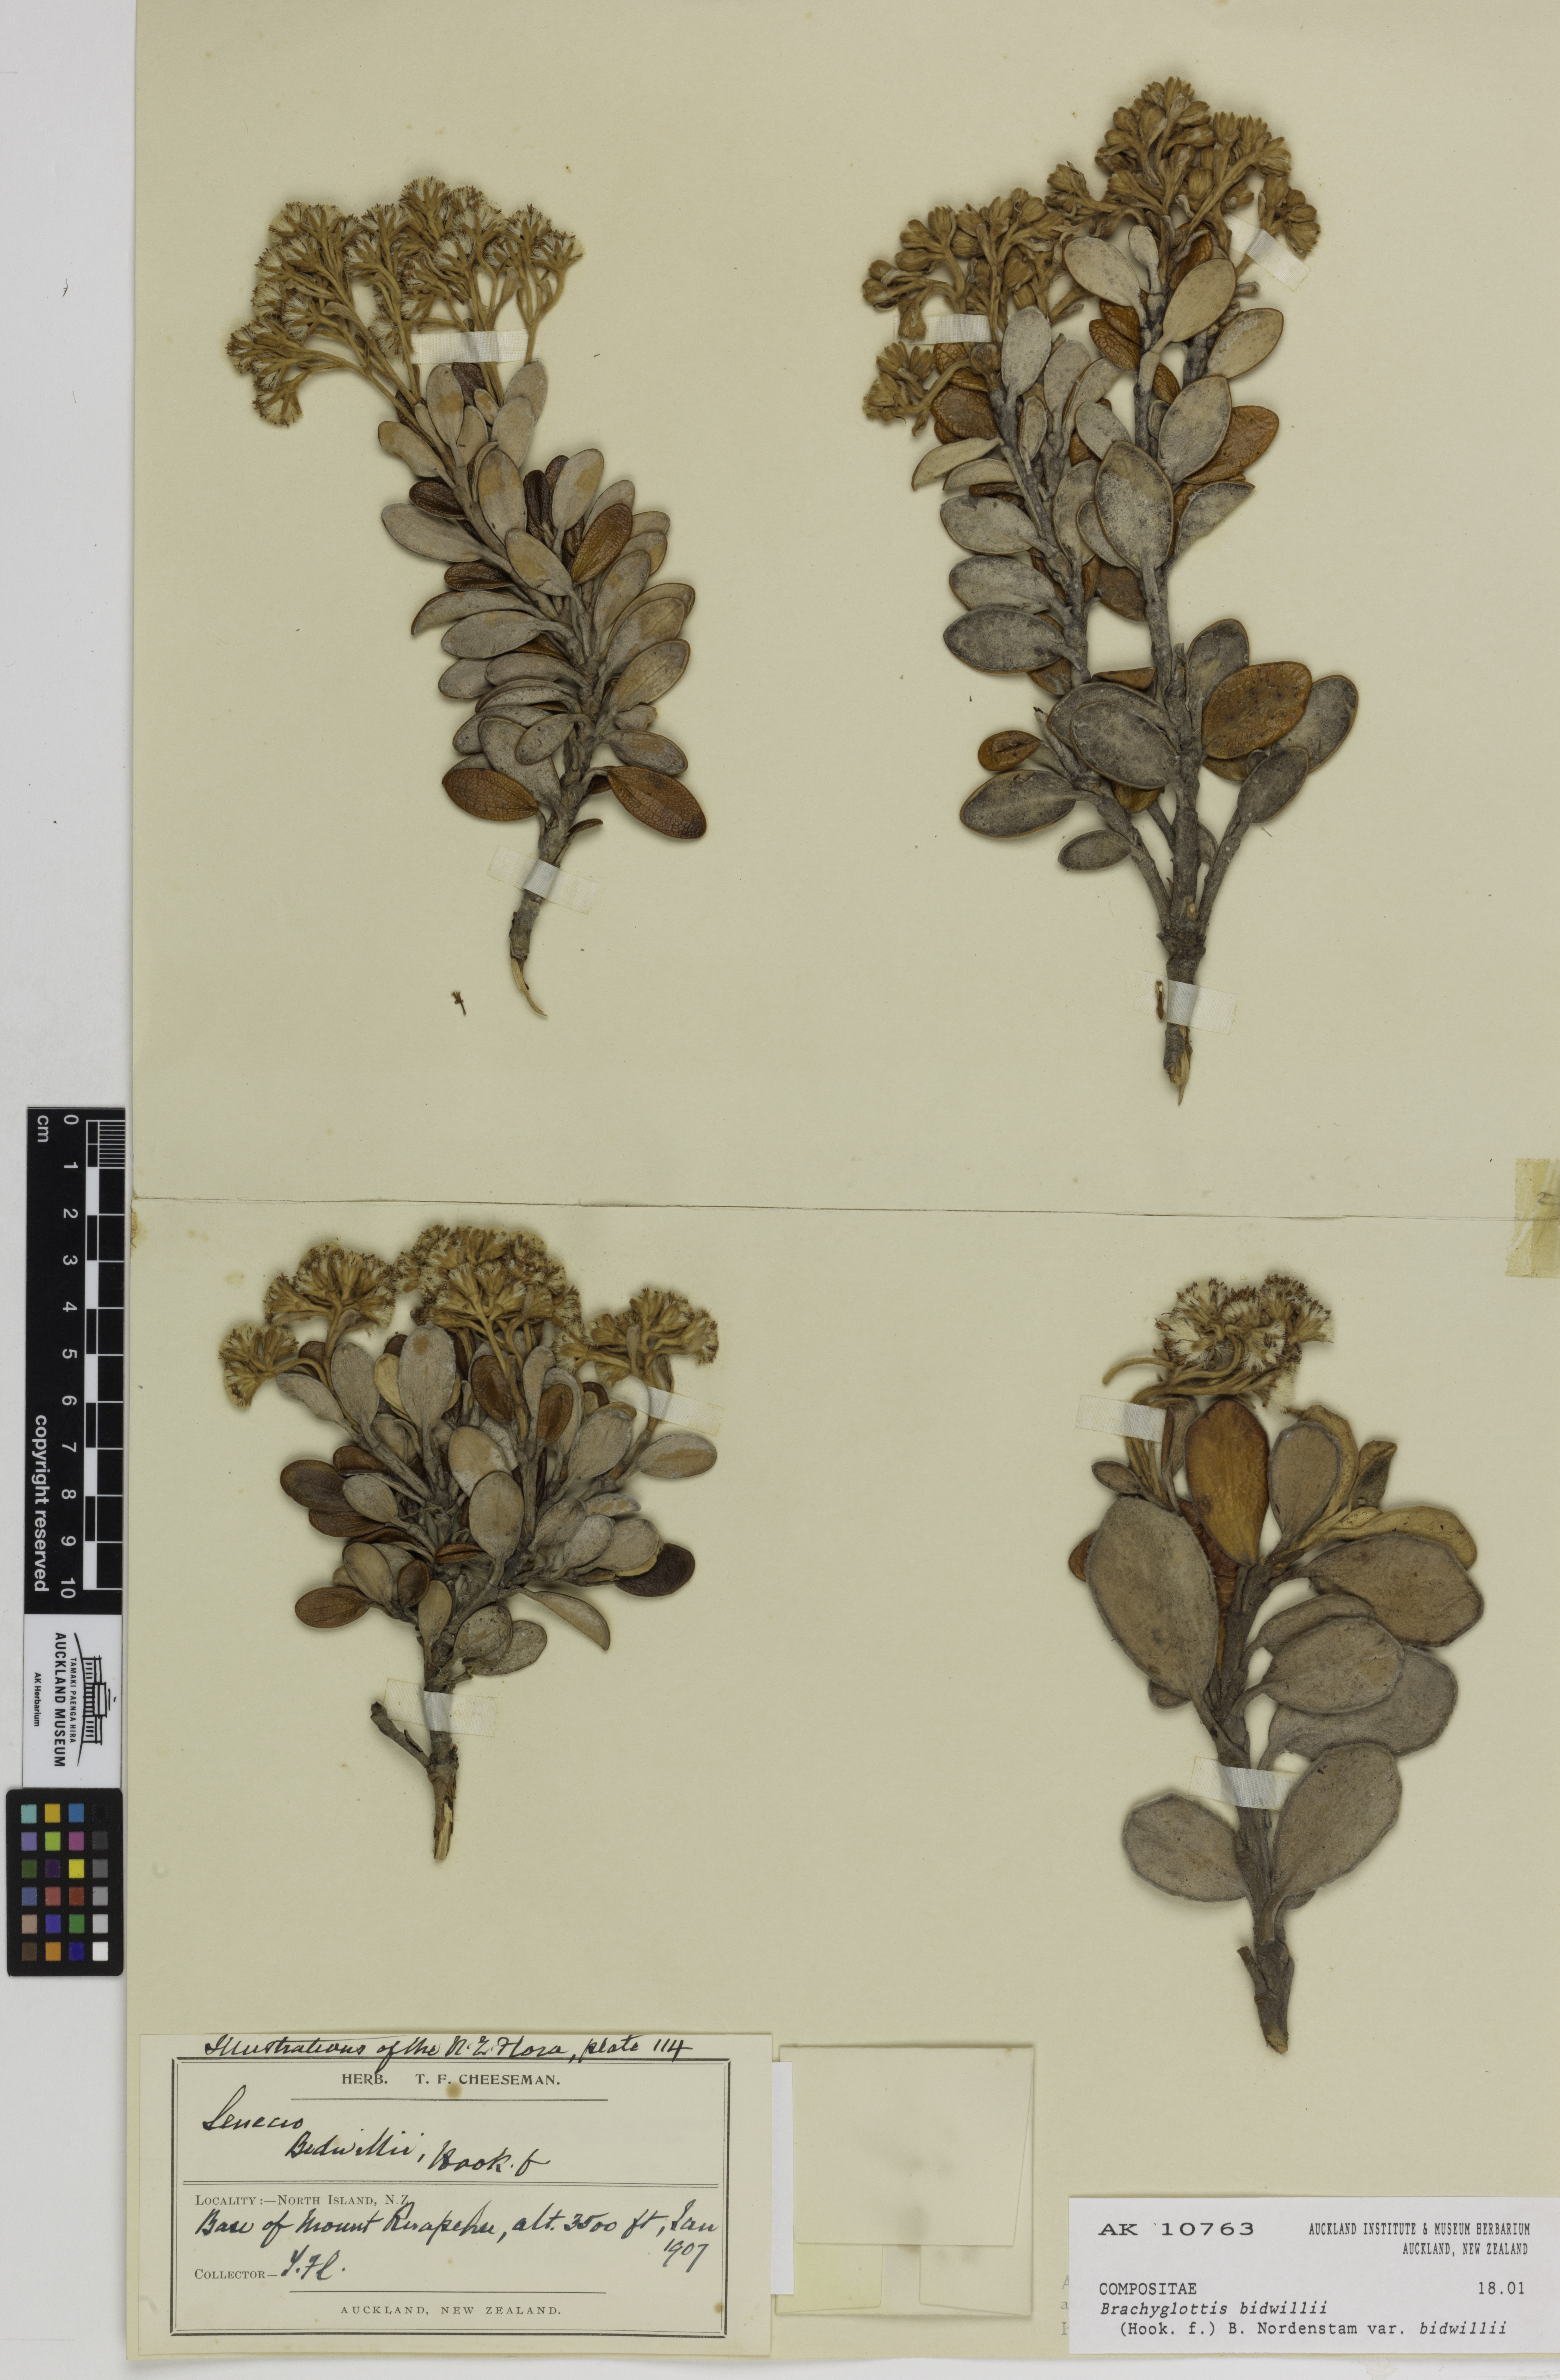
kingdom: Plantae
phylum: Tracheophyta
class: Magnoliopsida
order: Asterales
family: Asteraceae
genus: Brachyglottis
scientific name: Brachyglottis bidwillii
